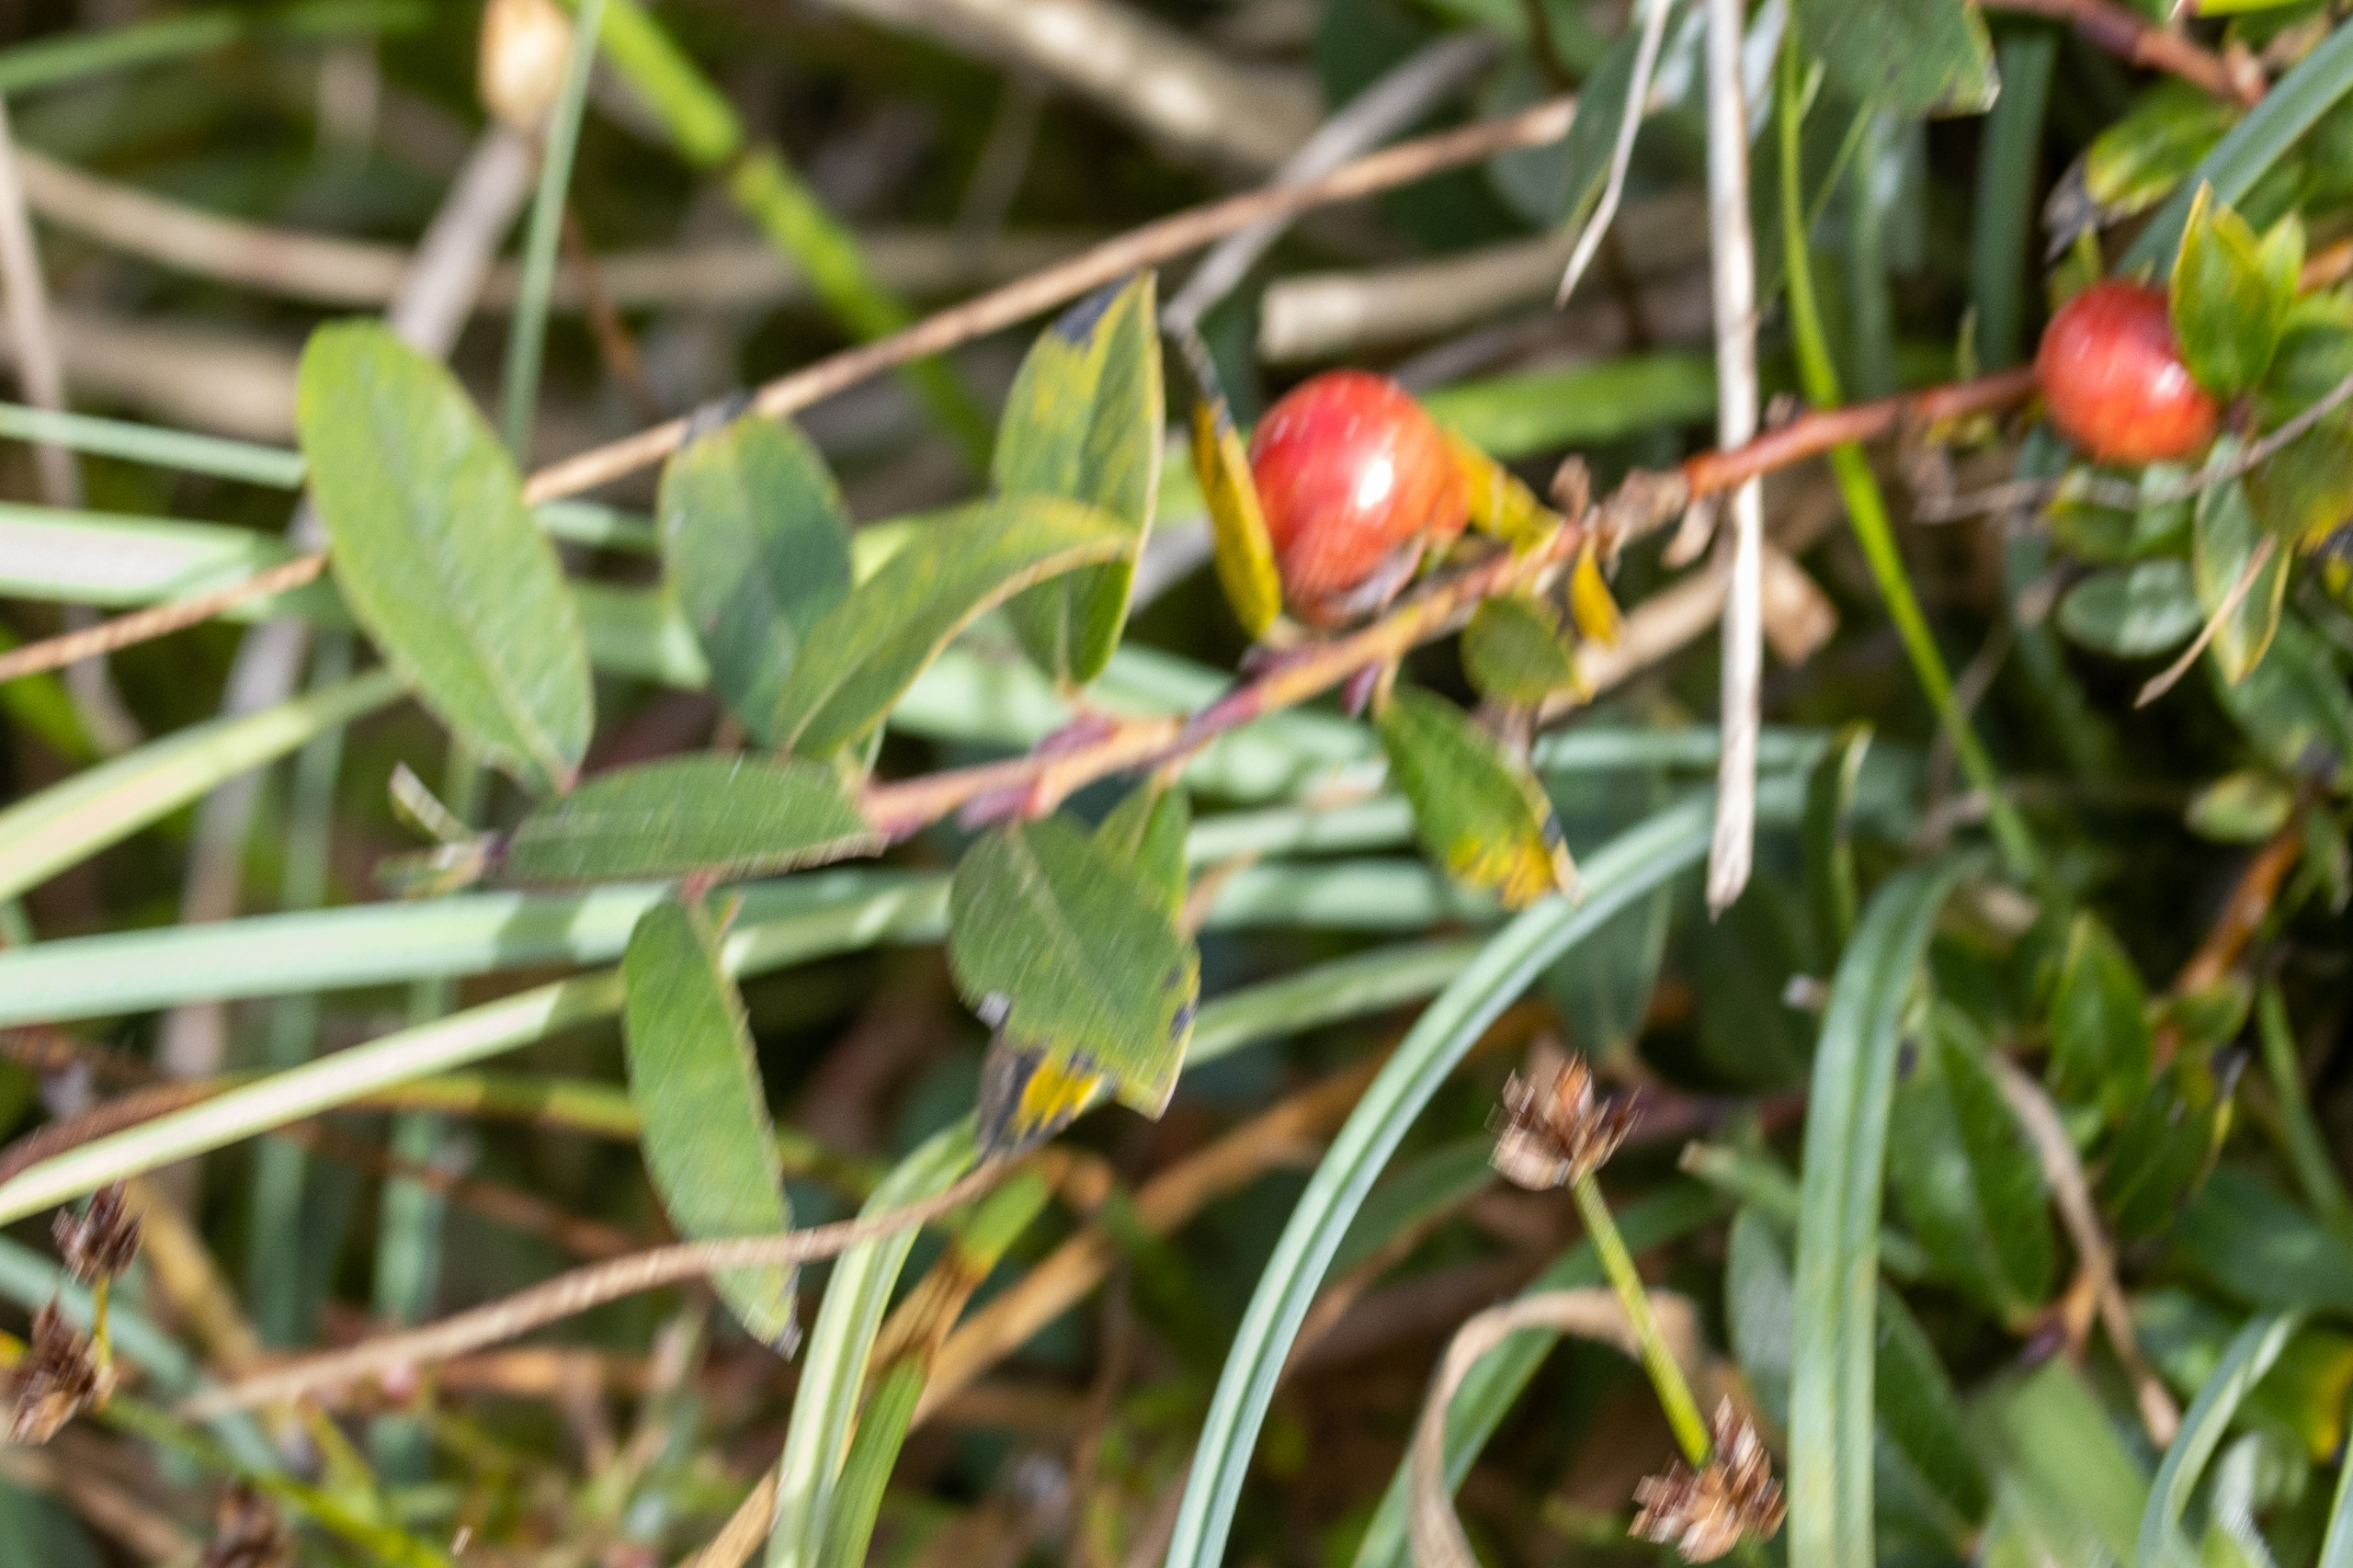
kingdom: Plantae
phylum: Tracheophyta
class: Magnoliopsida
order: Malpighiales
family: Salicaceae
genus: Salix
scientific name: Salix repens
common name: Krybende pil
